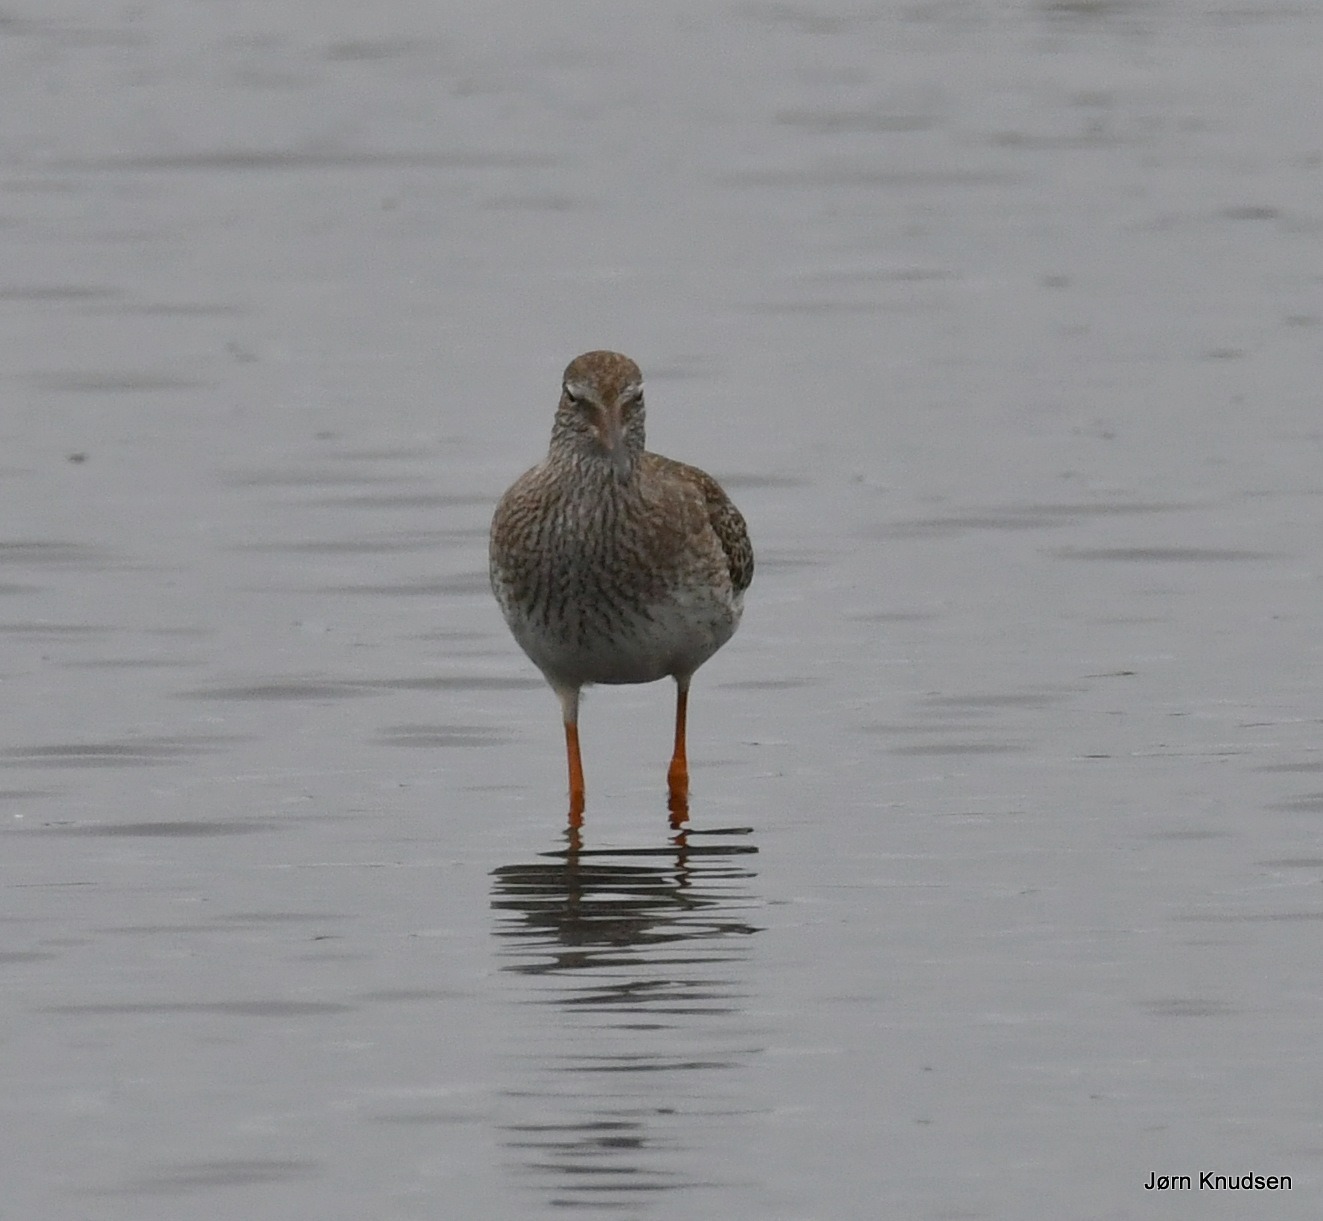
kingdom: Animalia
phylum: Chordata
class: Aves
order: Charadriiformes
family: Scolopacidae
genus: Tringa
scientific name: Tringa totanus
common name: Rødben
